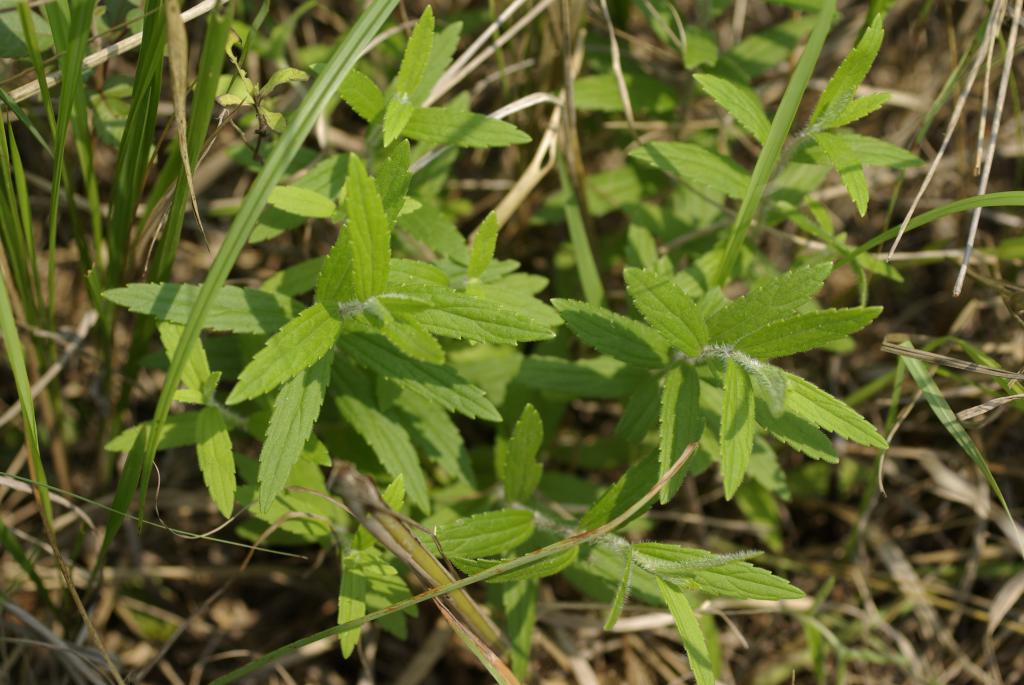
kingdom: Plantae
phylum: Tracheophyta
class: Magnoliopsida
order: Asterales
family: Asteraceae
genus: Eupatorium
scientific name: Eupatorium lindleyanum
